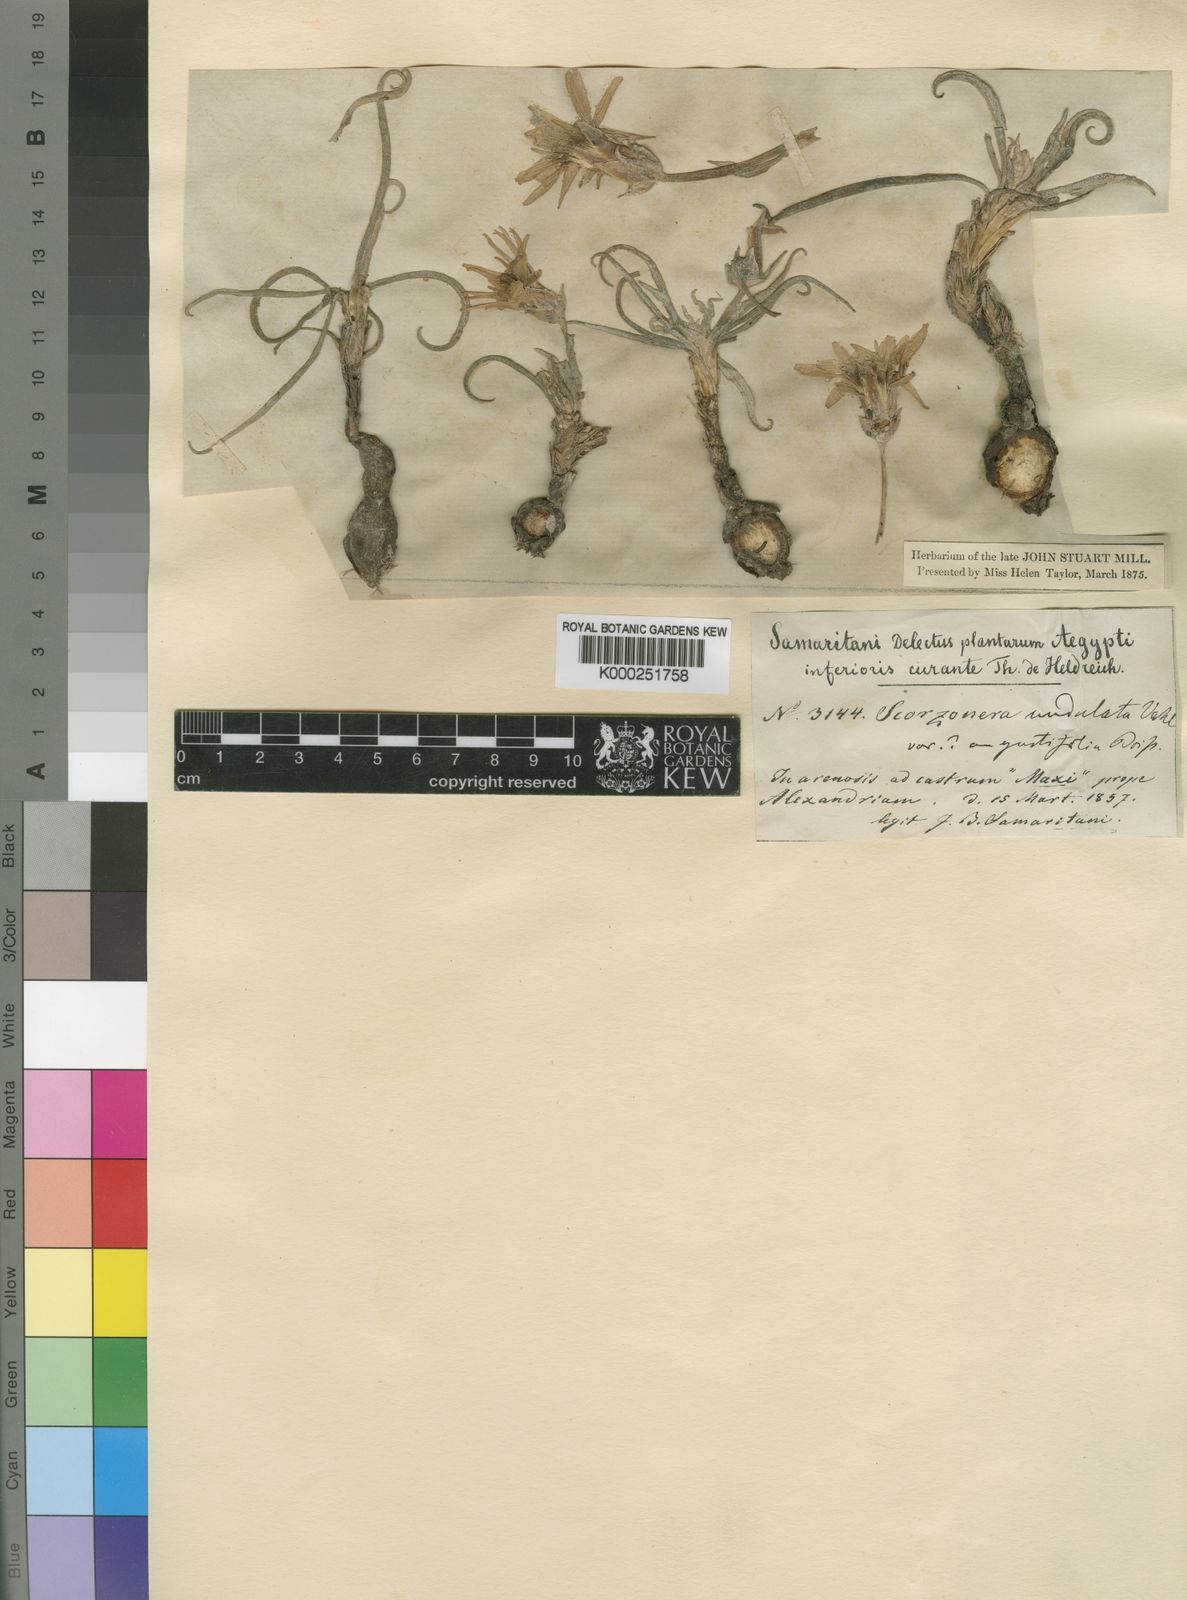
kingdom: Plantae
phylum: Tracheophyta
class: Magnoliopsida
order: Asterales
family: Asteraceae
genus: Pseudopodospermum
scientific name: Pseudopodospermum undulatum
